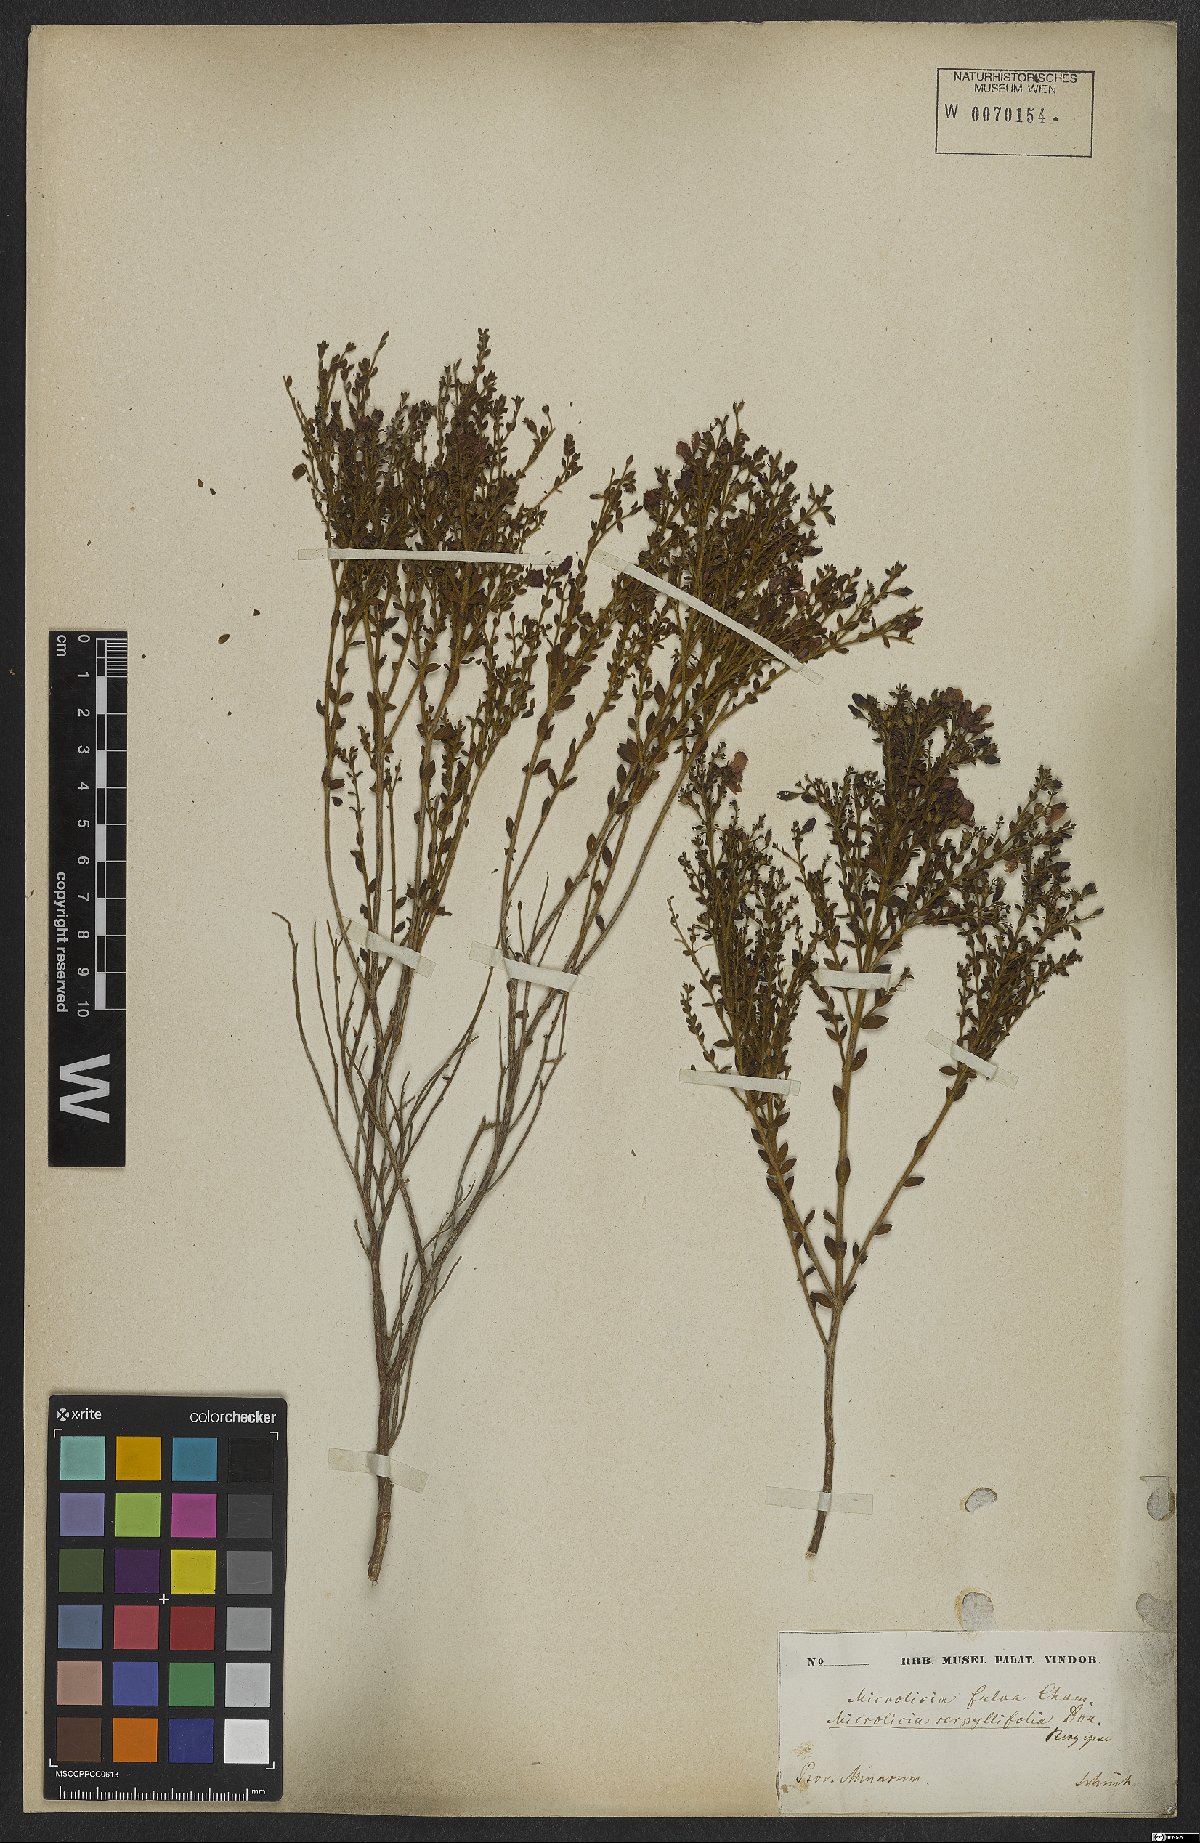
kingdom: Plantae
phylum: Tracheophyta
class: Magnoliopsida
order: Myrtales
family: Melastomataceae
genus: Microlicia
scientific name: Microlicia fulva
